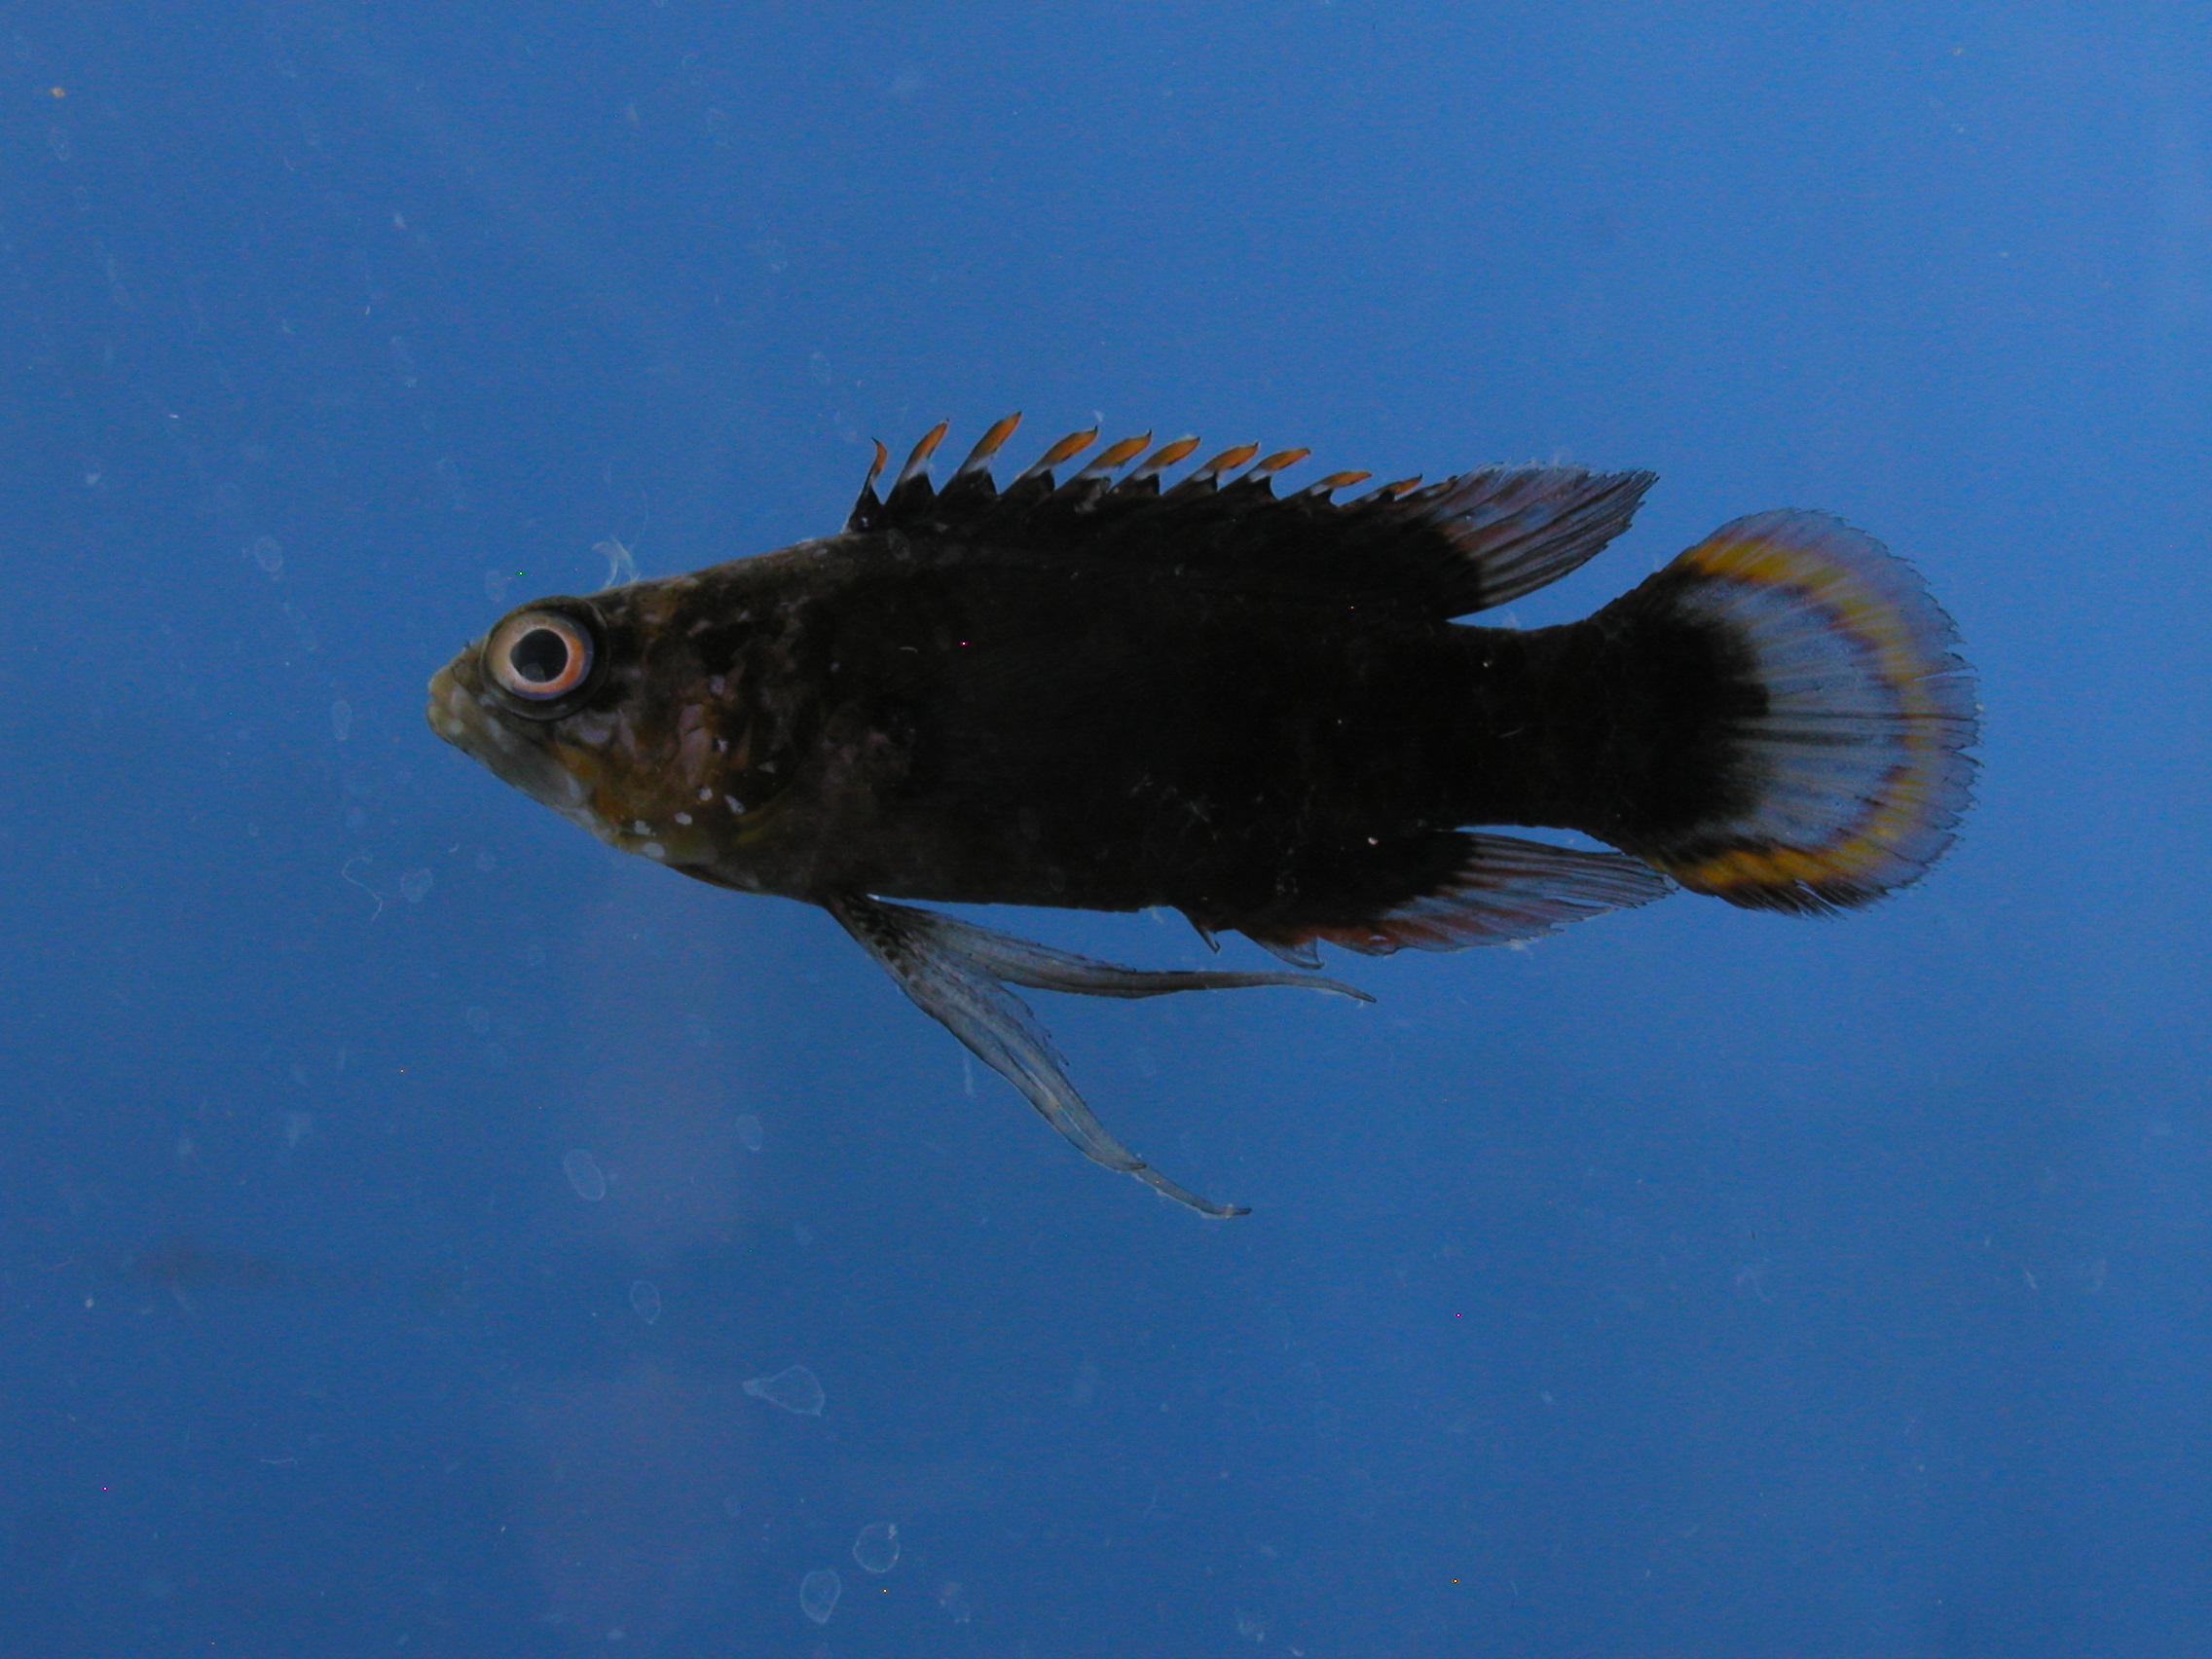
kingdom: Animalia
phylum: Chordata
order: Perciformes
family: Plesiopidae
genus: Plesiops
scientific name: Plesiops
